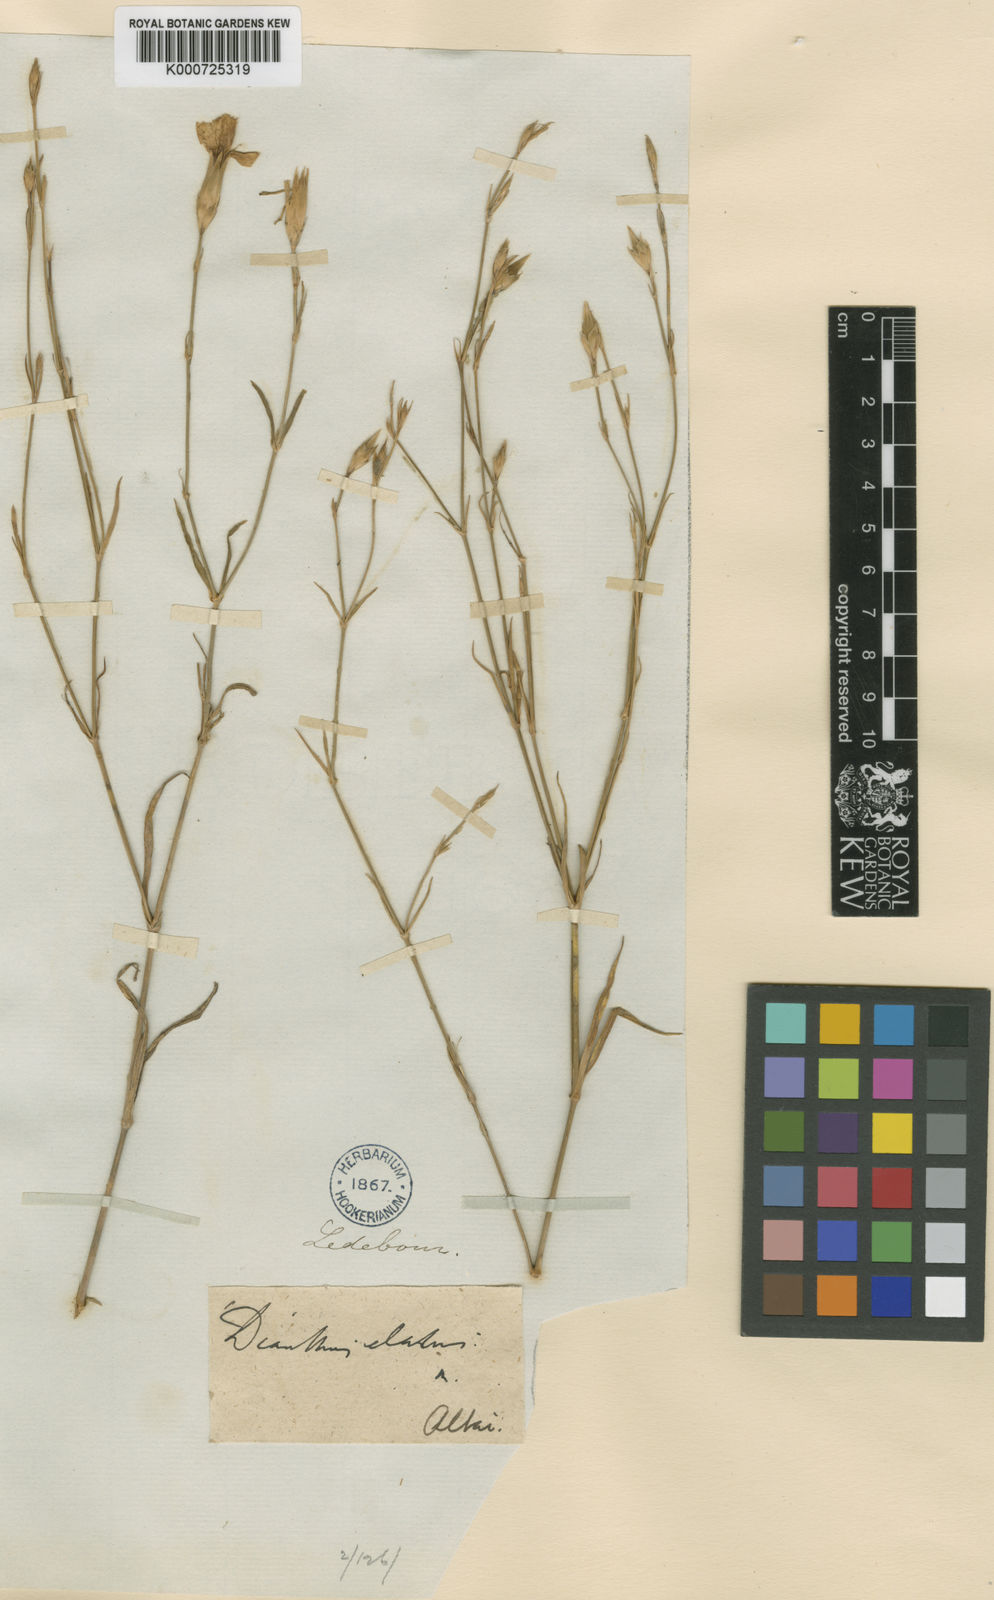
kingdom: Plantae
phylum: Tracheophyta
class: Magnoliopsida
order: Caryophyllales
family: Caryophyllaceae
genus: Dianthus
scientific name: Dianthus
